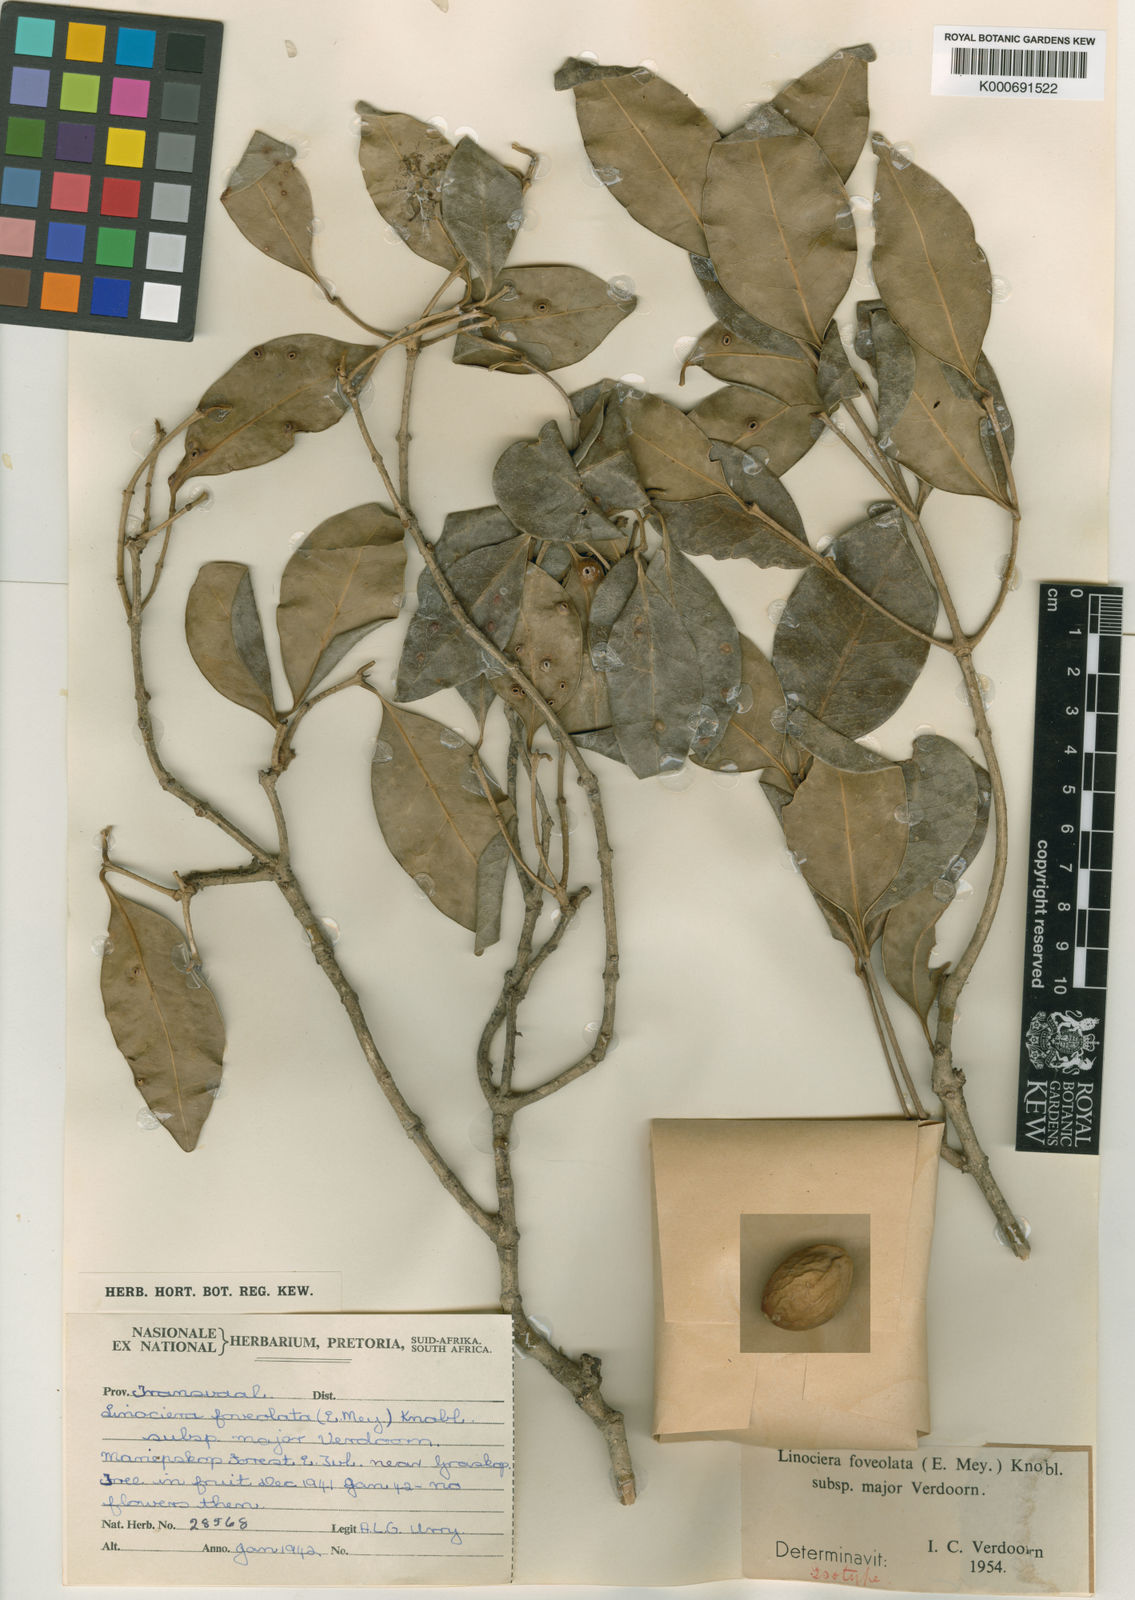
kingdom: Plantae
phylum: Tracheophyta
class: Magnoliopsida
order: Lamiales
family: Oleaceae
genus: Noronhia
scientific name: Noronhia foveolata
